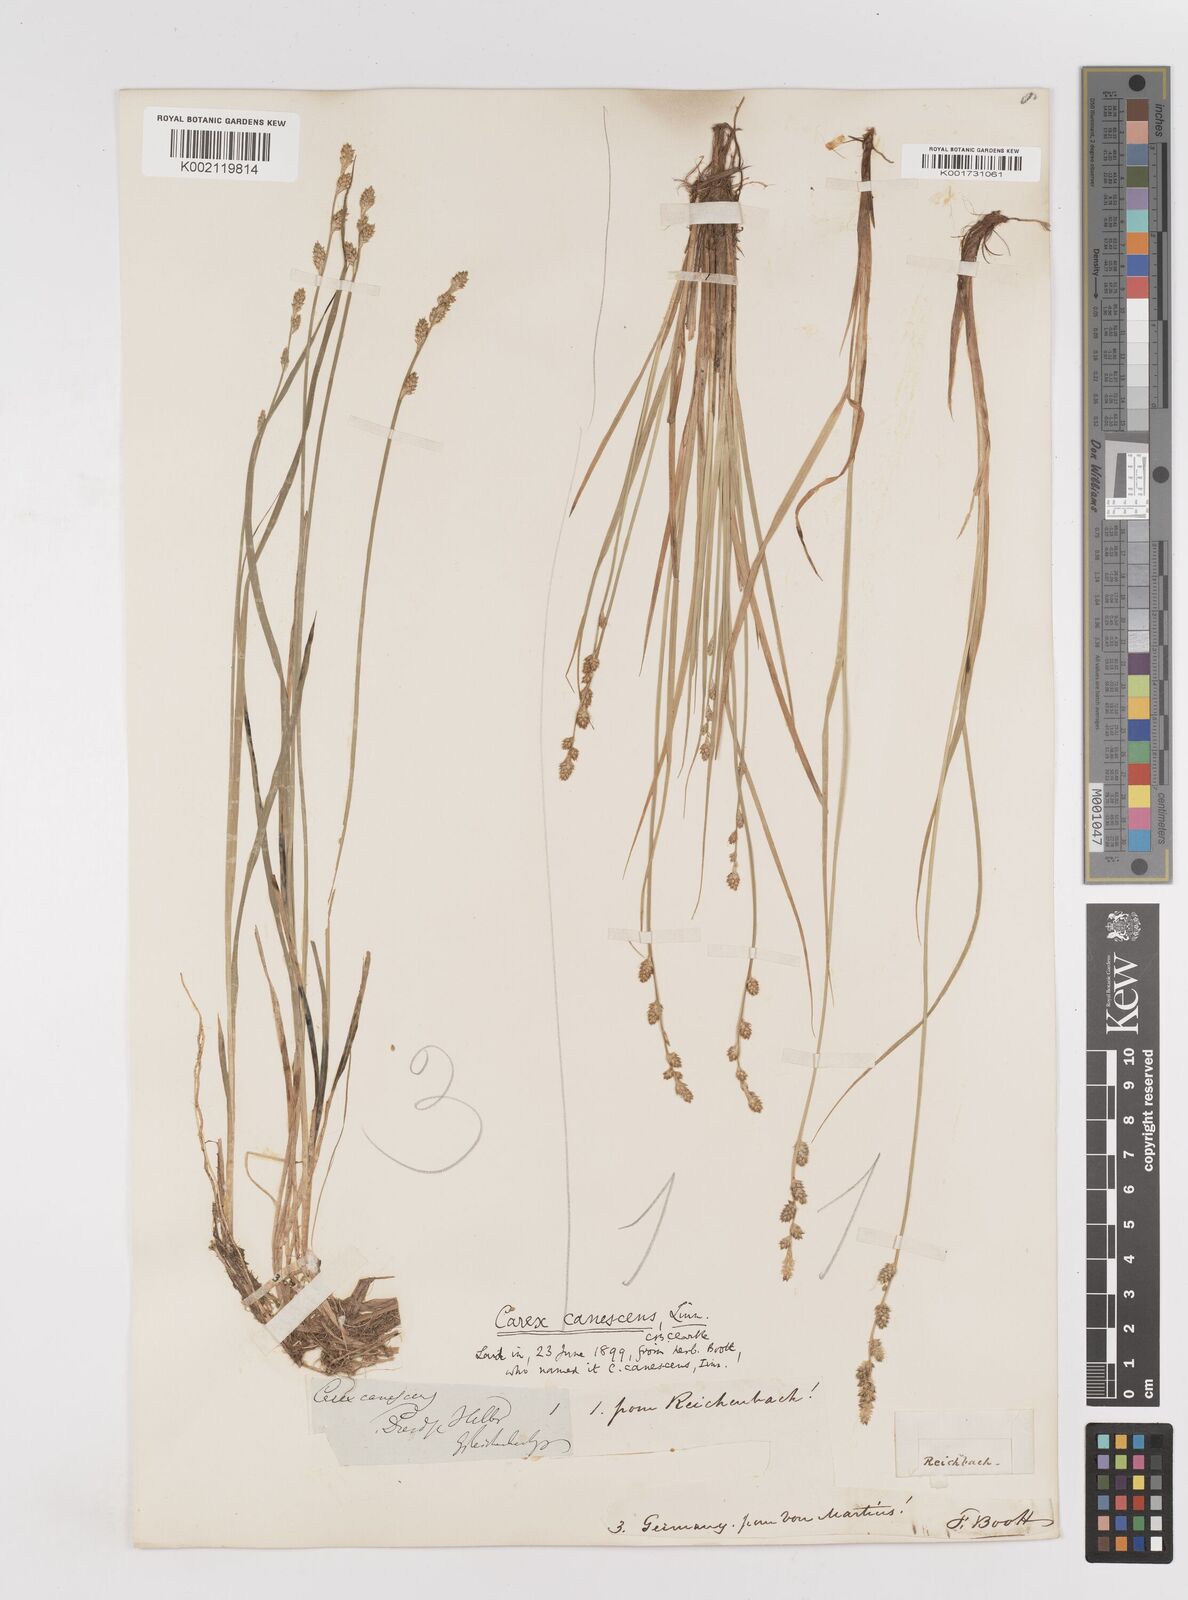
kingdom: Plantae
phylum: Tracheophyta
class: Liliopsida
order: Poales
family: Cyperaceae
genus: Carex
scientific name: Carex curta
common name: White sedge
